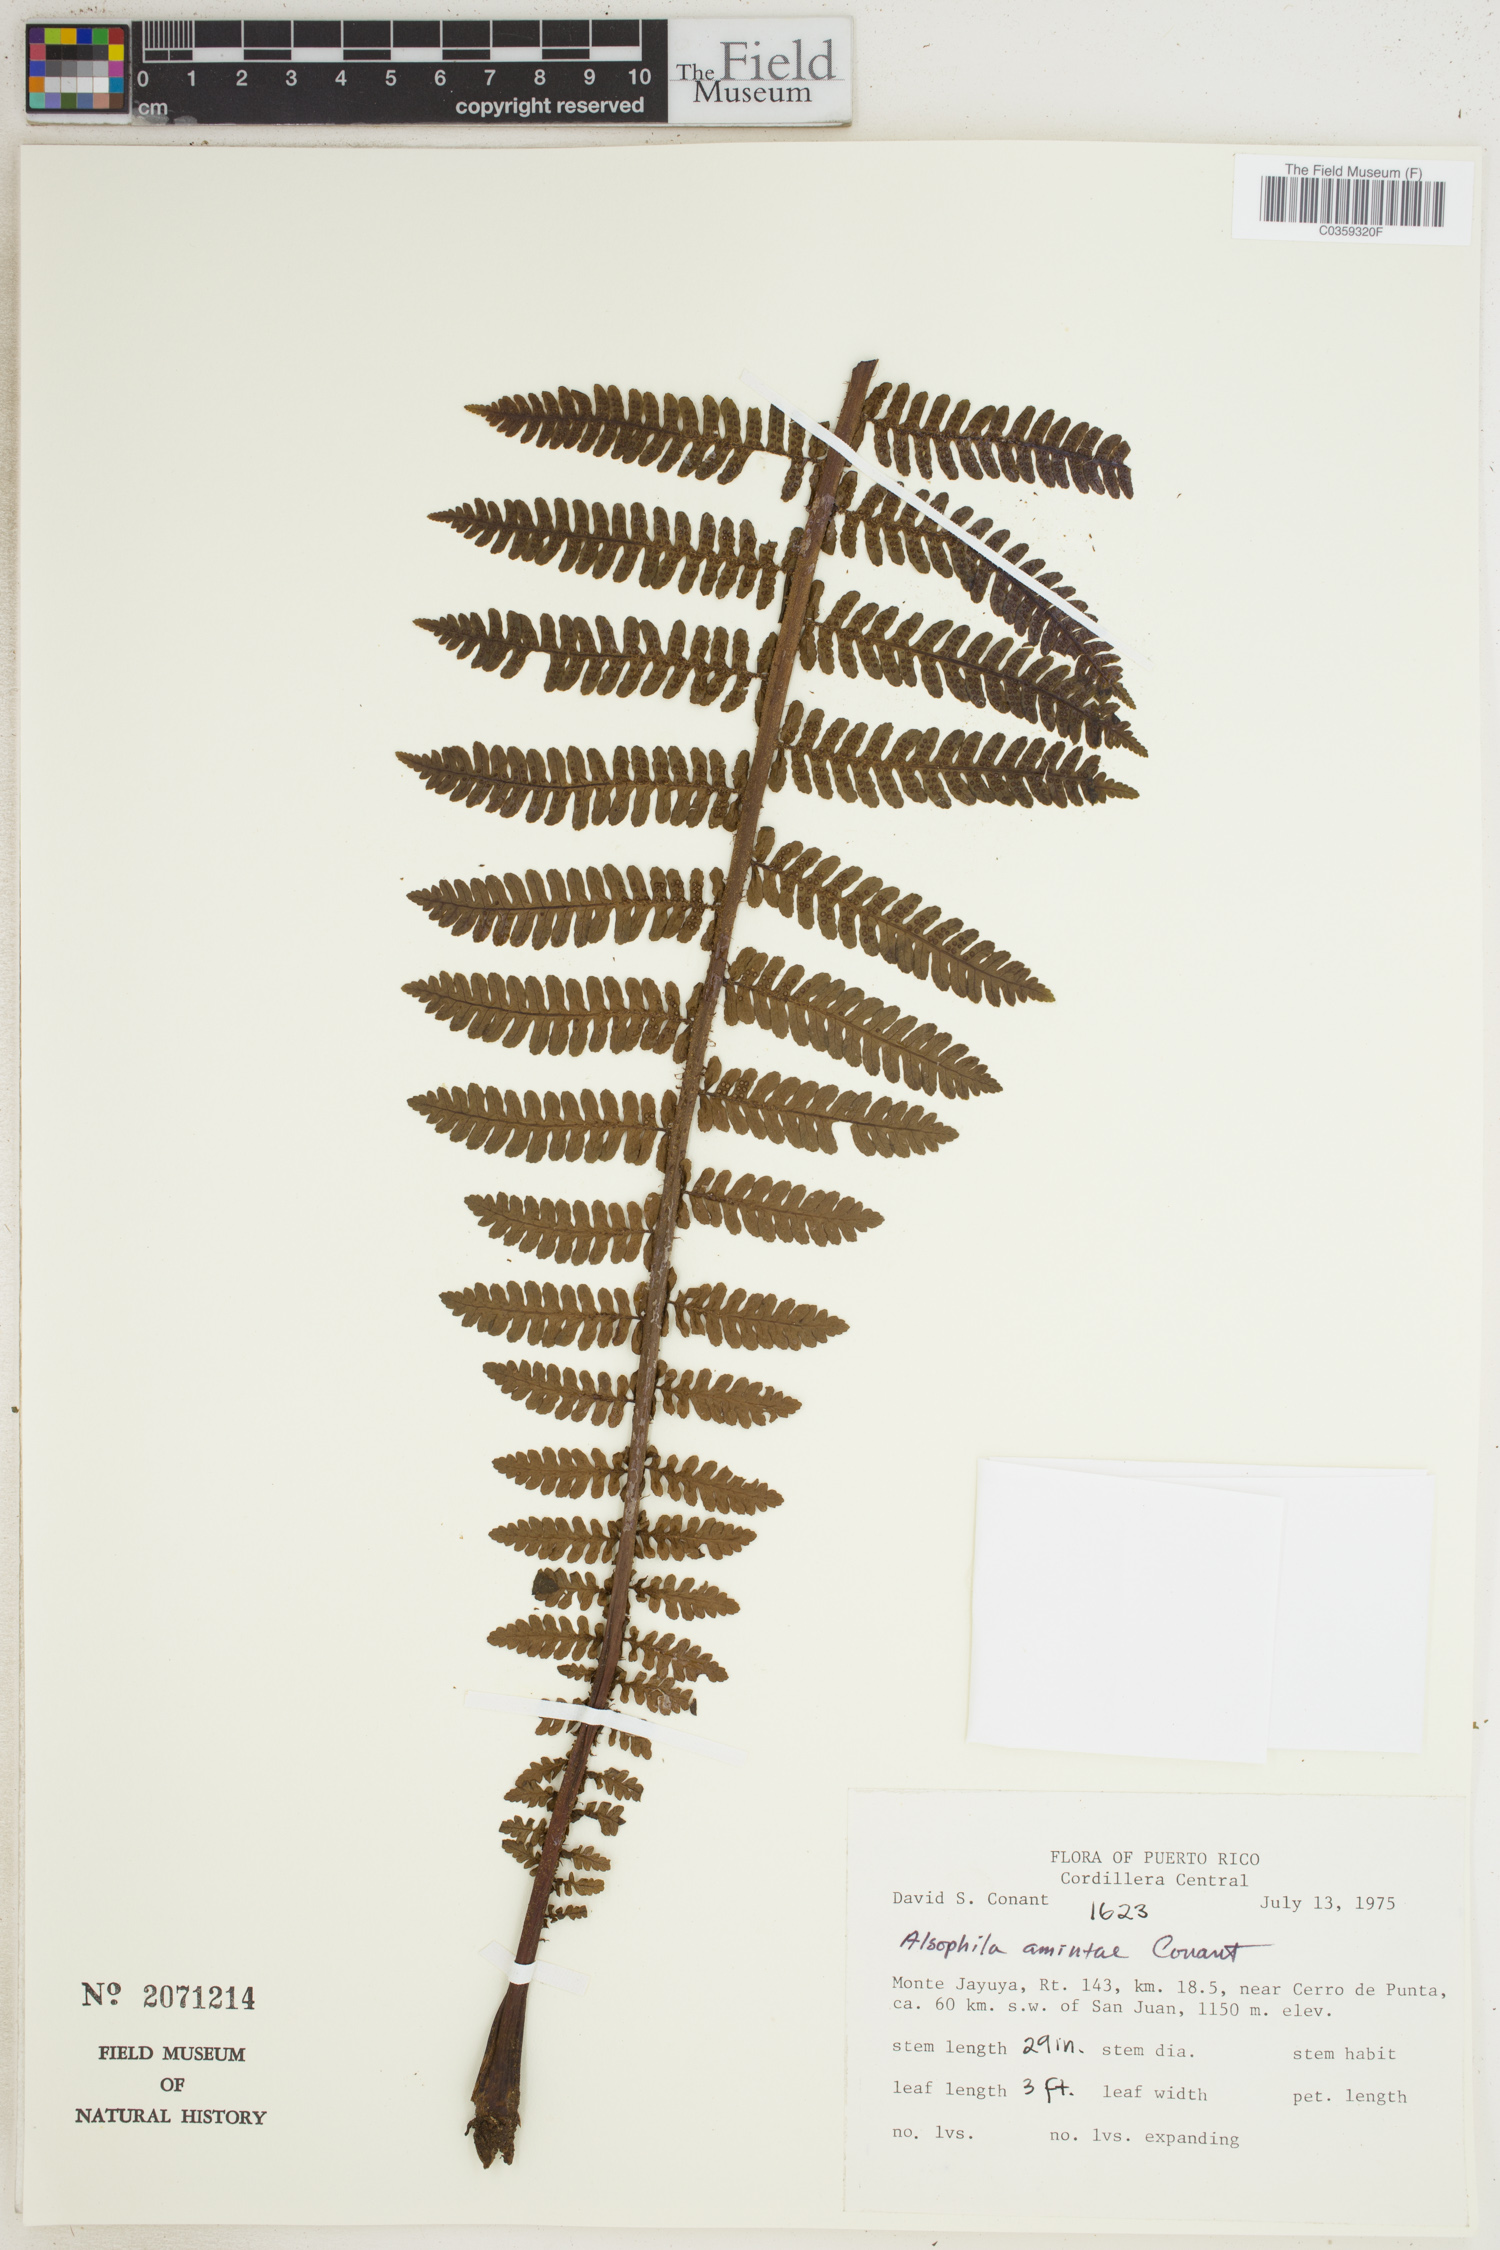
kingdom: Plantae
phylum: Tracheophyta
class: Polypodiopsida
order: Cyatheales
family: Cyatheaceae
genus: Alsophila
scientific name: Alsophila dryopteroides
